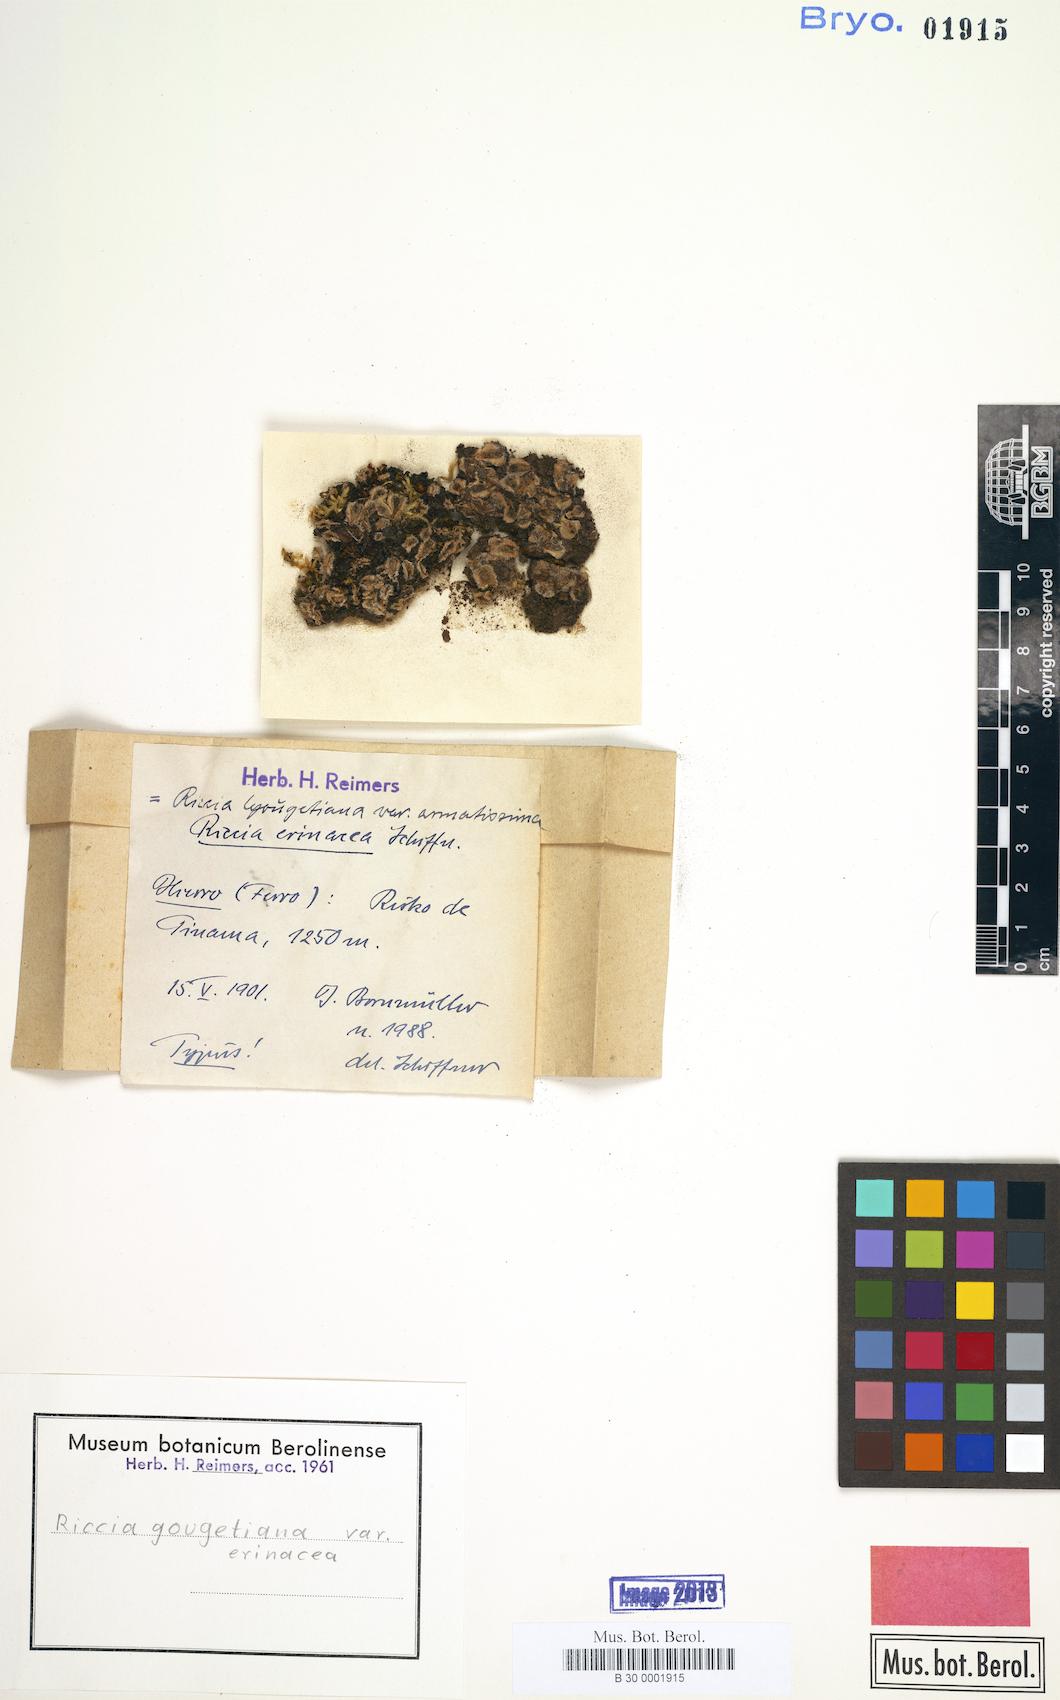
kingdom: Plantae
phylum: Marchantiophyta
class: Marchantiopsida
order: Marchantiales
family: Ricciaceae
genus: Riccia
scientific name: Riccia gougetiana
